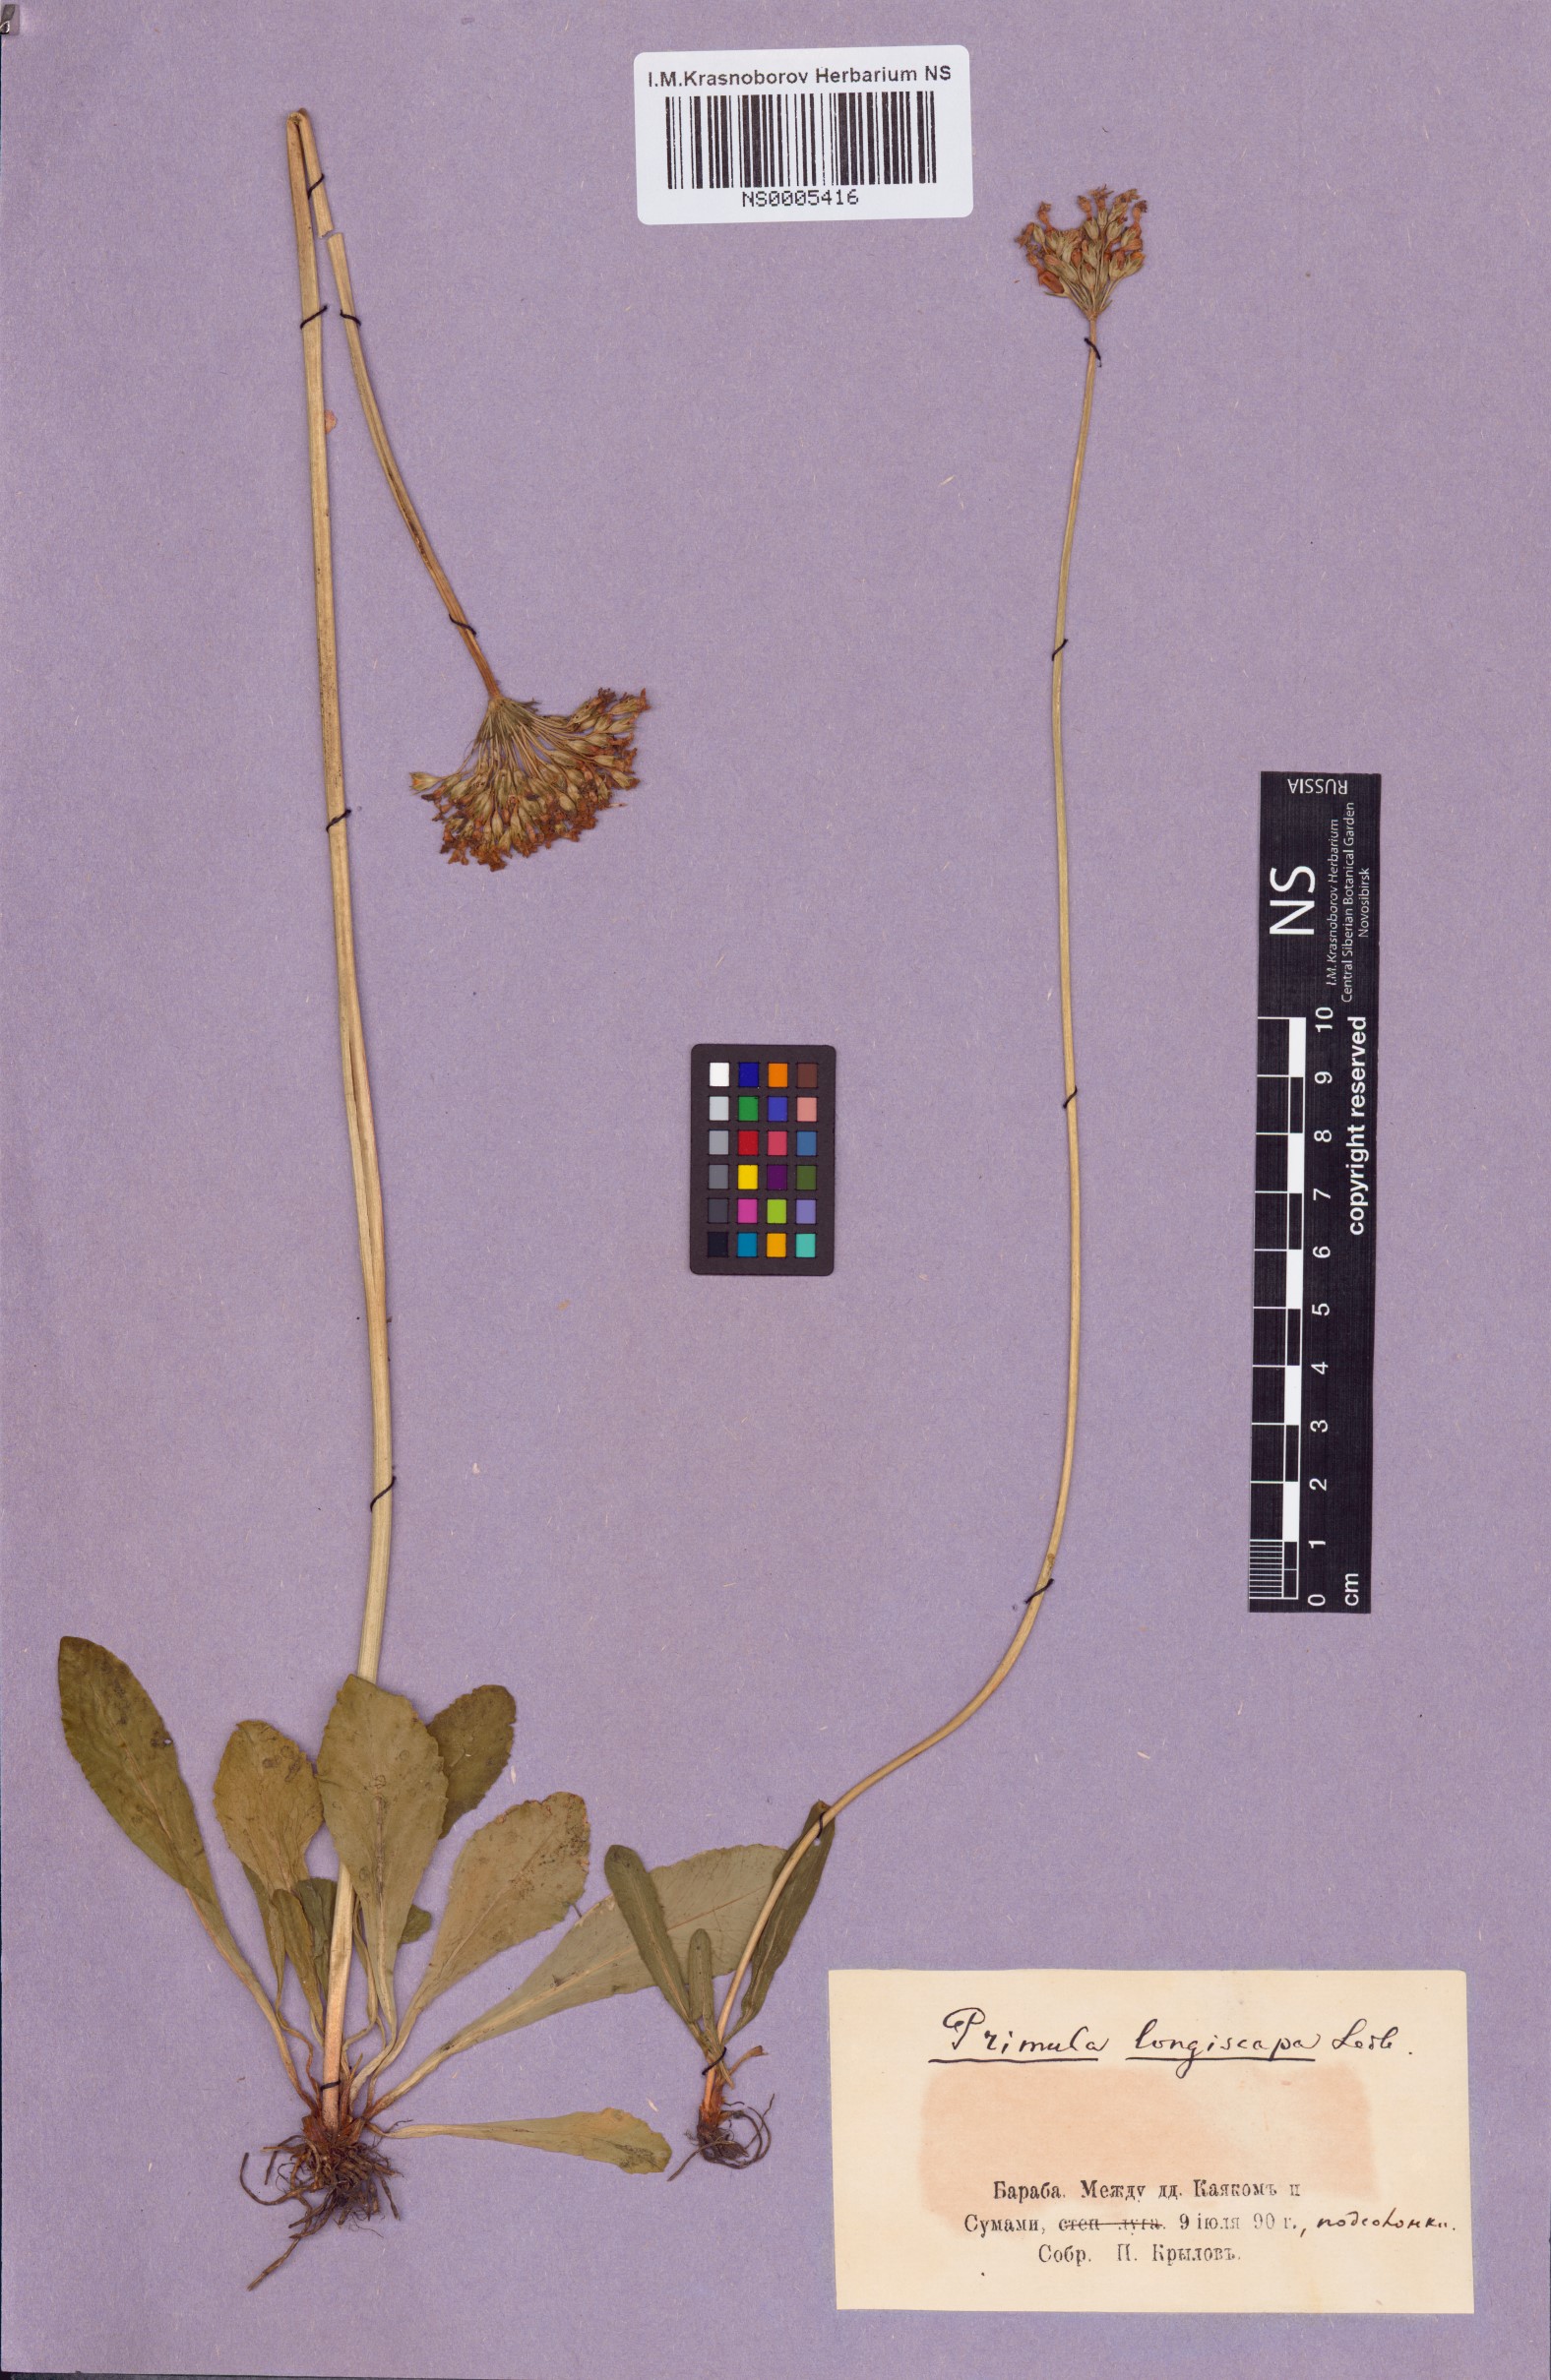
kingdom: Plantae
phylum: Tracheophyta
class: Magnoliopsida
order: Ericales
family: Primulaceae
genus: Primula
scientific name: Primula longiscapa
